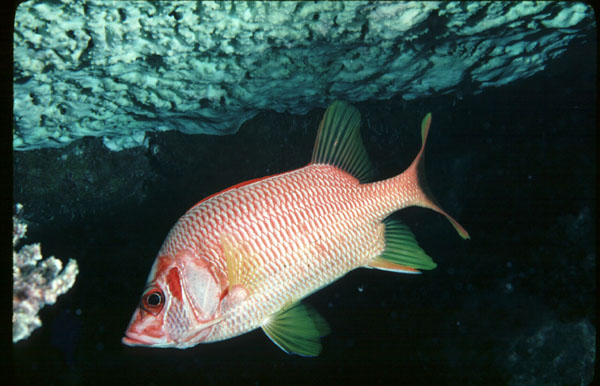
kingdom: Animalia
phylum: Chordata
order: Beryciformes
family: Holocentridae
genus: Sargocentron
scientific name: Sargocentron spiniferum
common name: Giant squirrelfish
